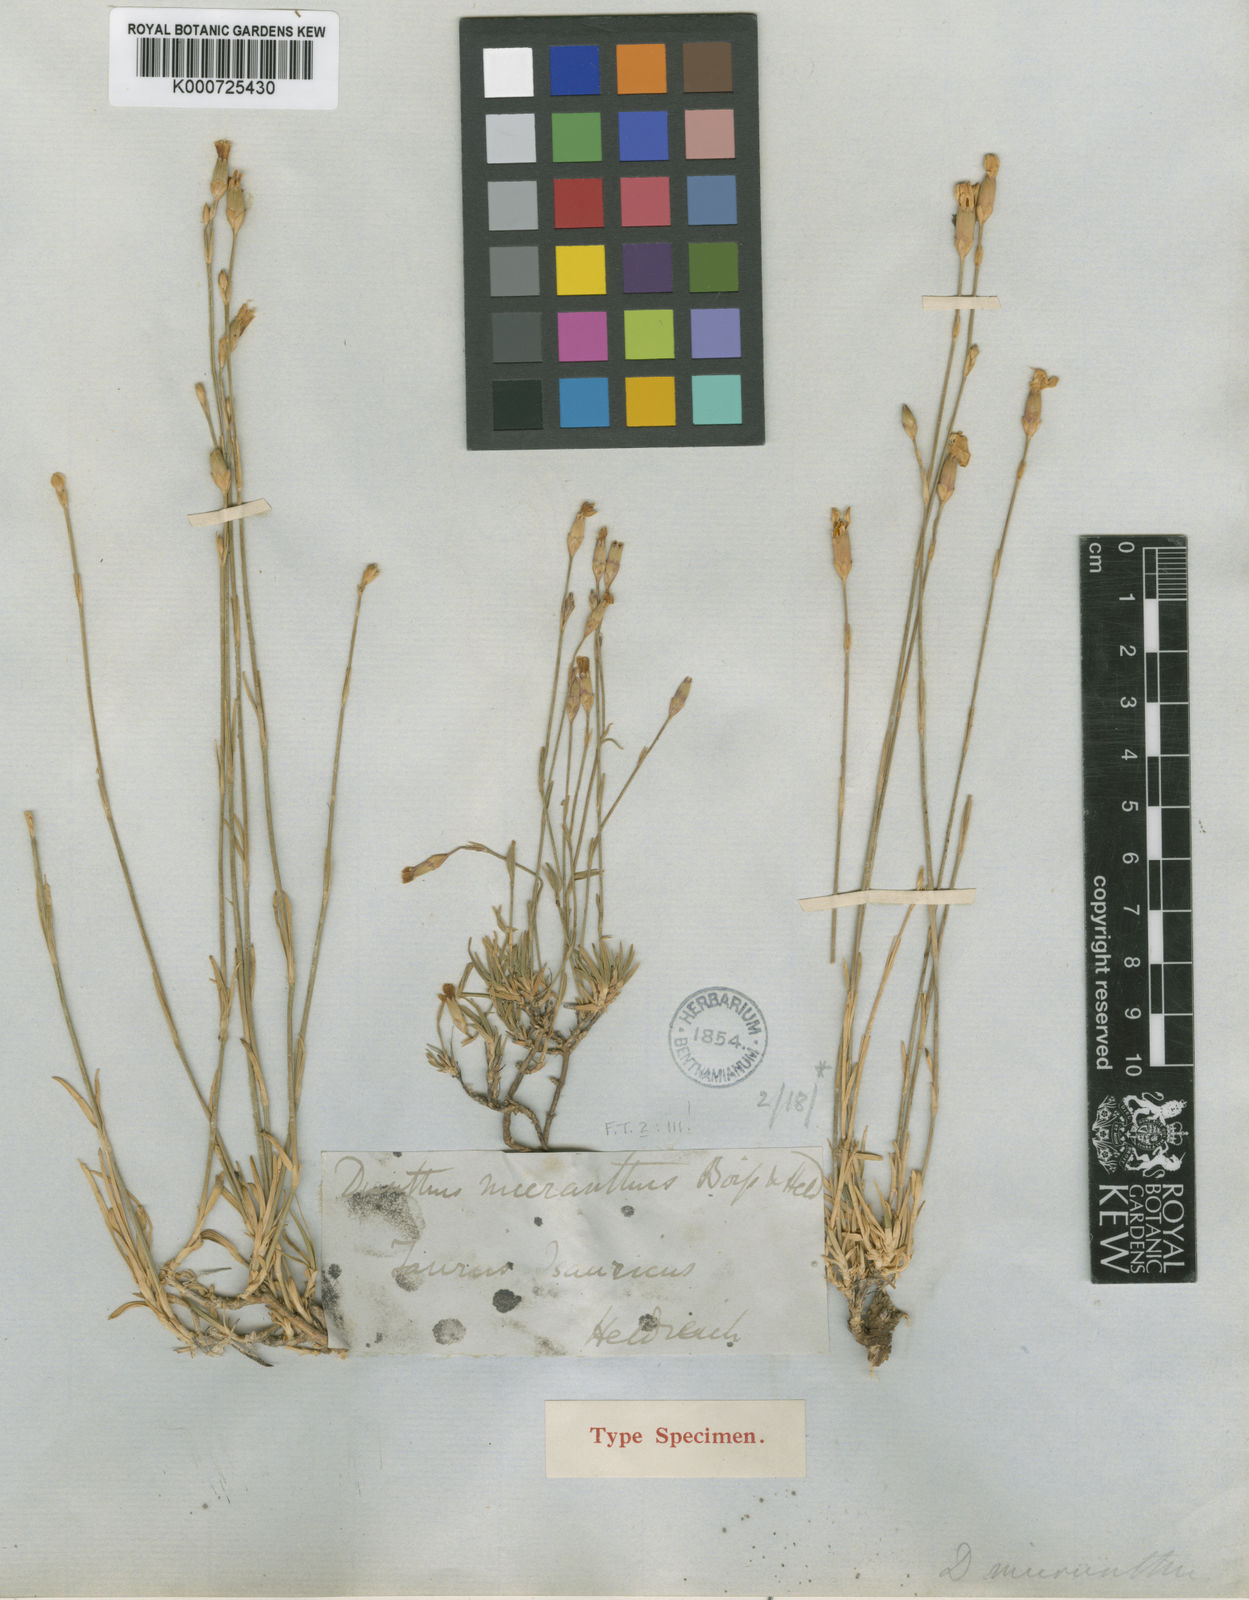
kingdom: Plantae
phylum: Tracheophyta
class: Magnoliopsida
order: Caryophyllales
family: Caryophyllaceae
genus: Dianthus
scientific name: Dianthus micranthus
